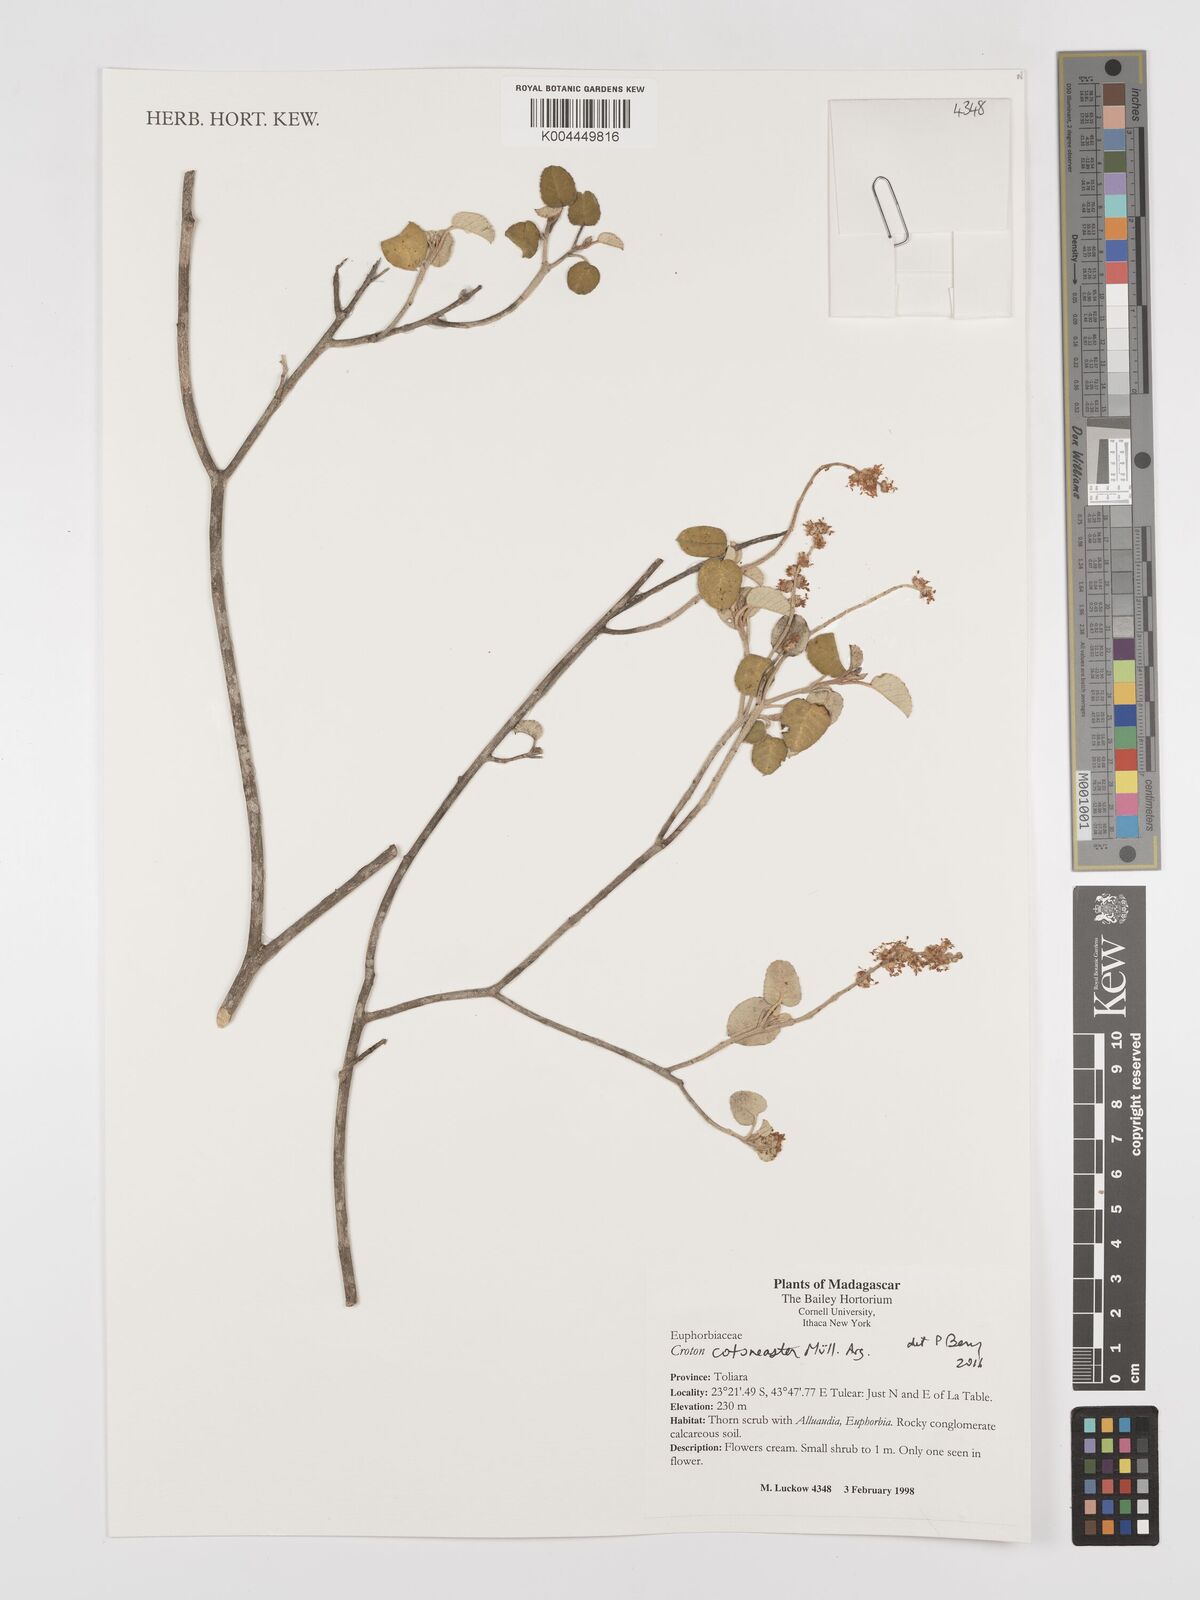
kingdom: Plantae
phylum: Tracheophyta
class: Magnoliopsida
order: Malpighiales
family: Euphorbiaceae
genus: Croton
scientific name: Croton cotoneaster
